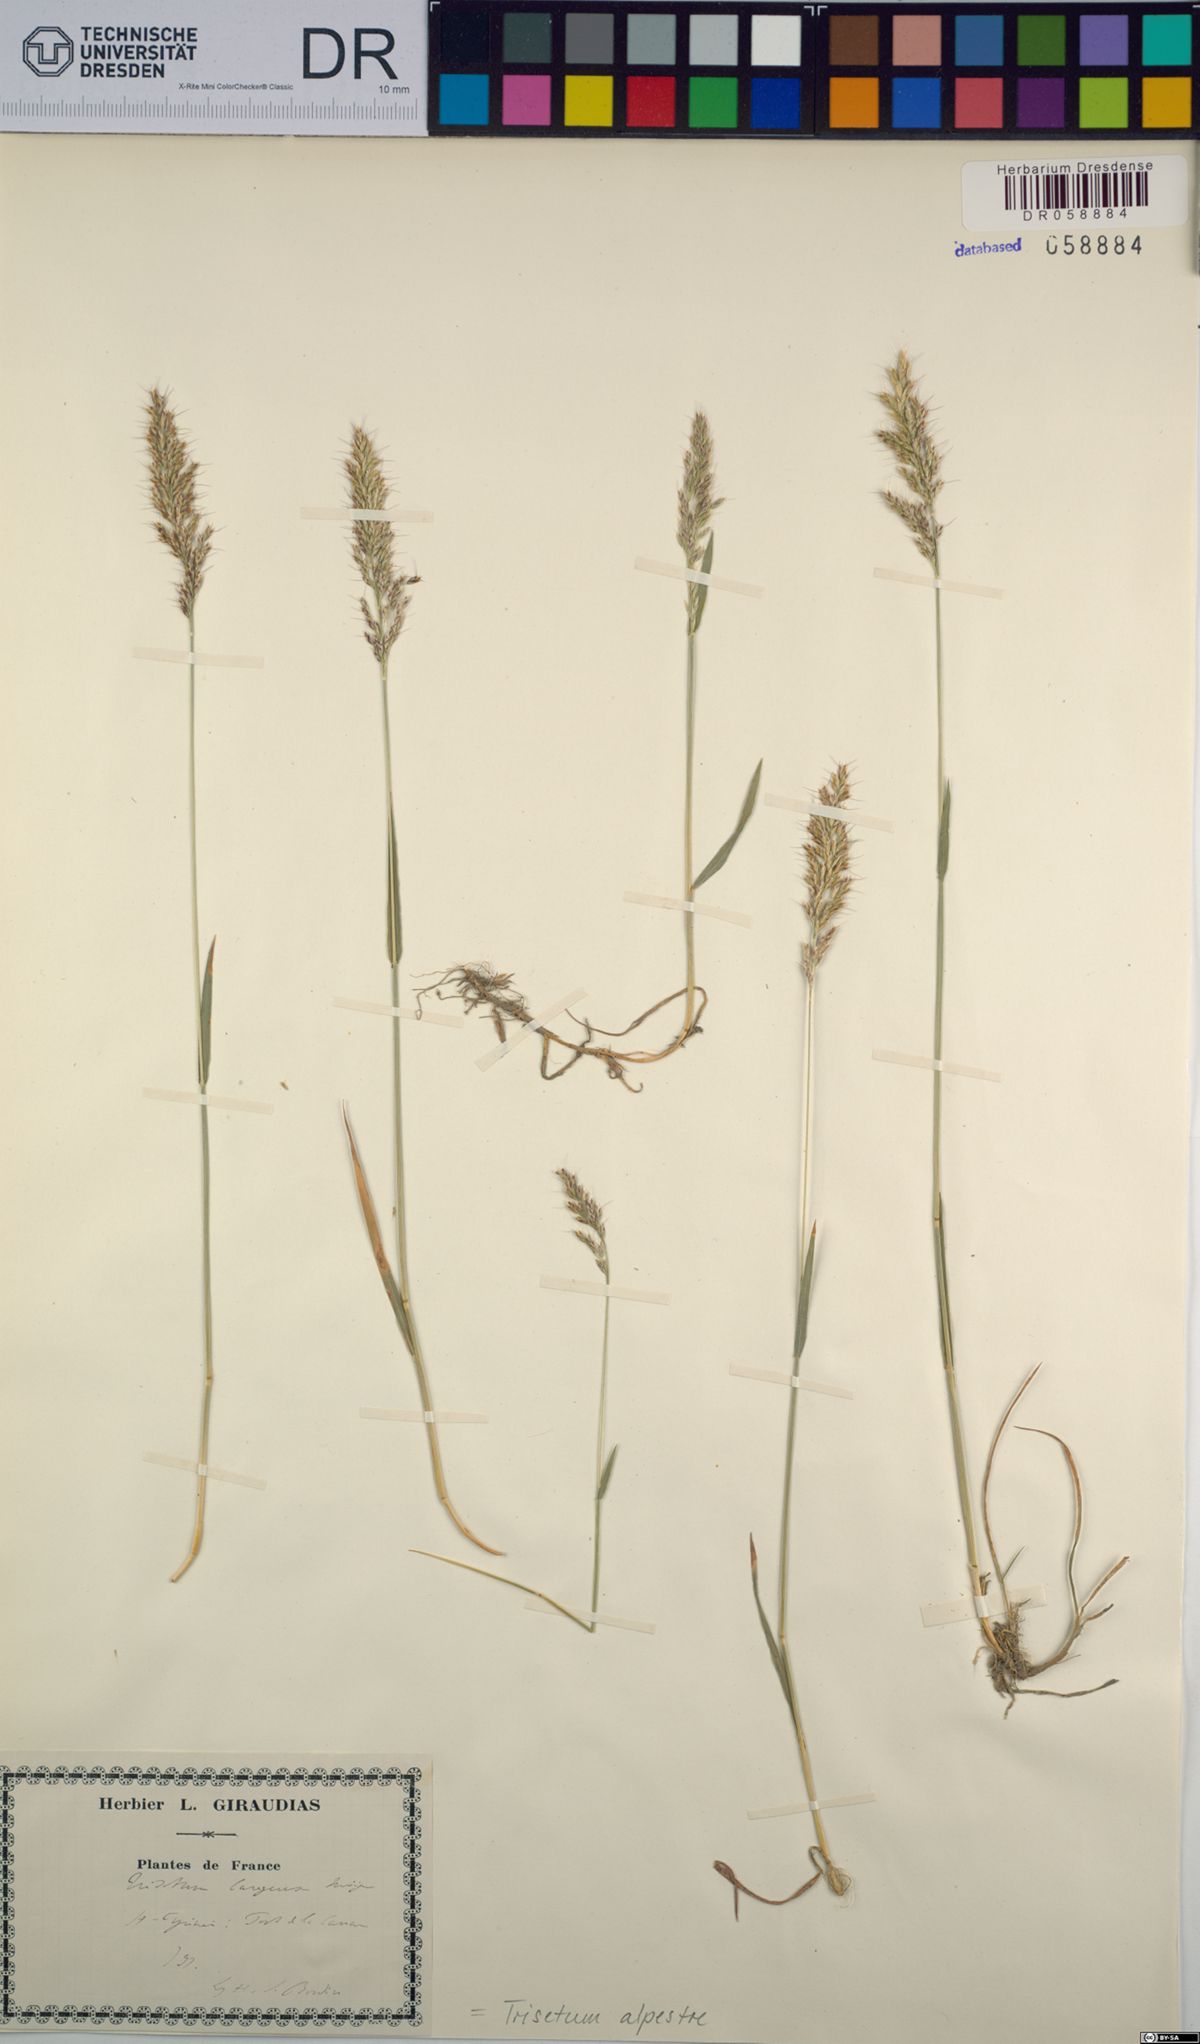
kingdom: Plantae
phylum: Tracheophyta
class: Liliopsida
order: Poales
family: Poaceae
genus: Trisetum
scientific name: Trisetum alpestre
